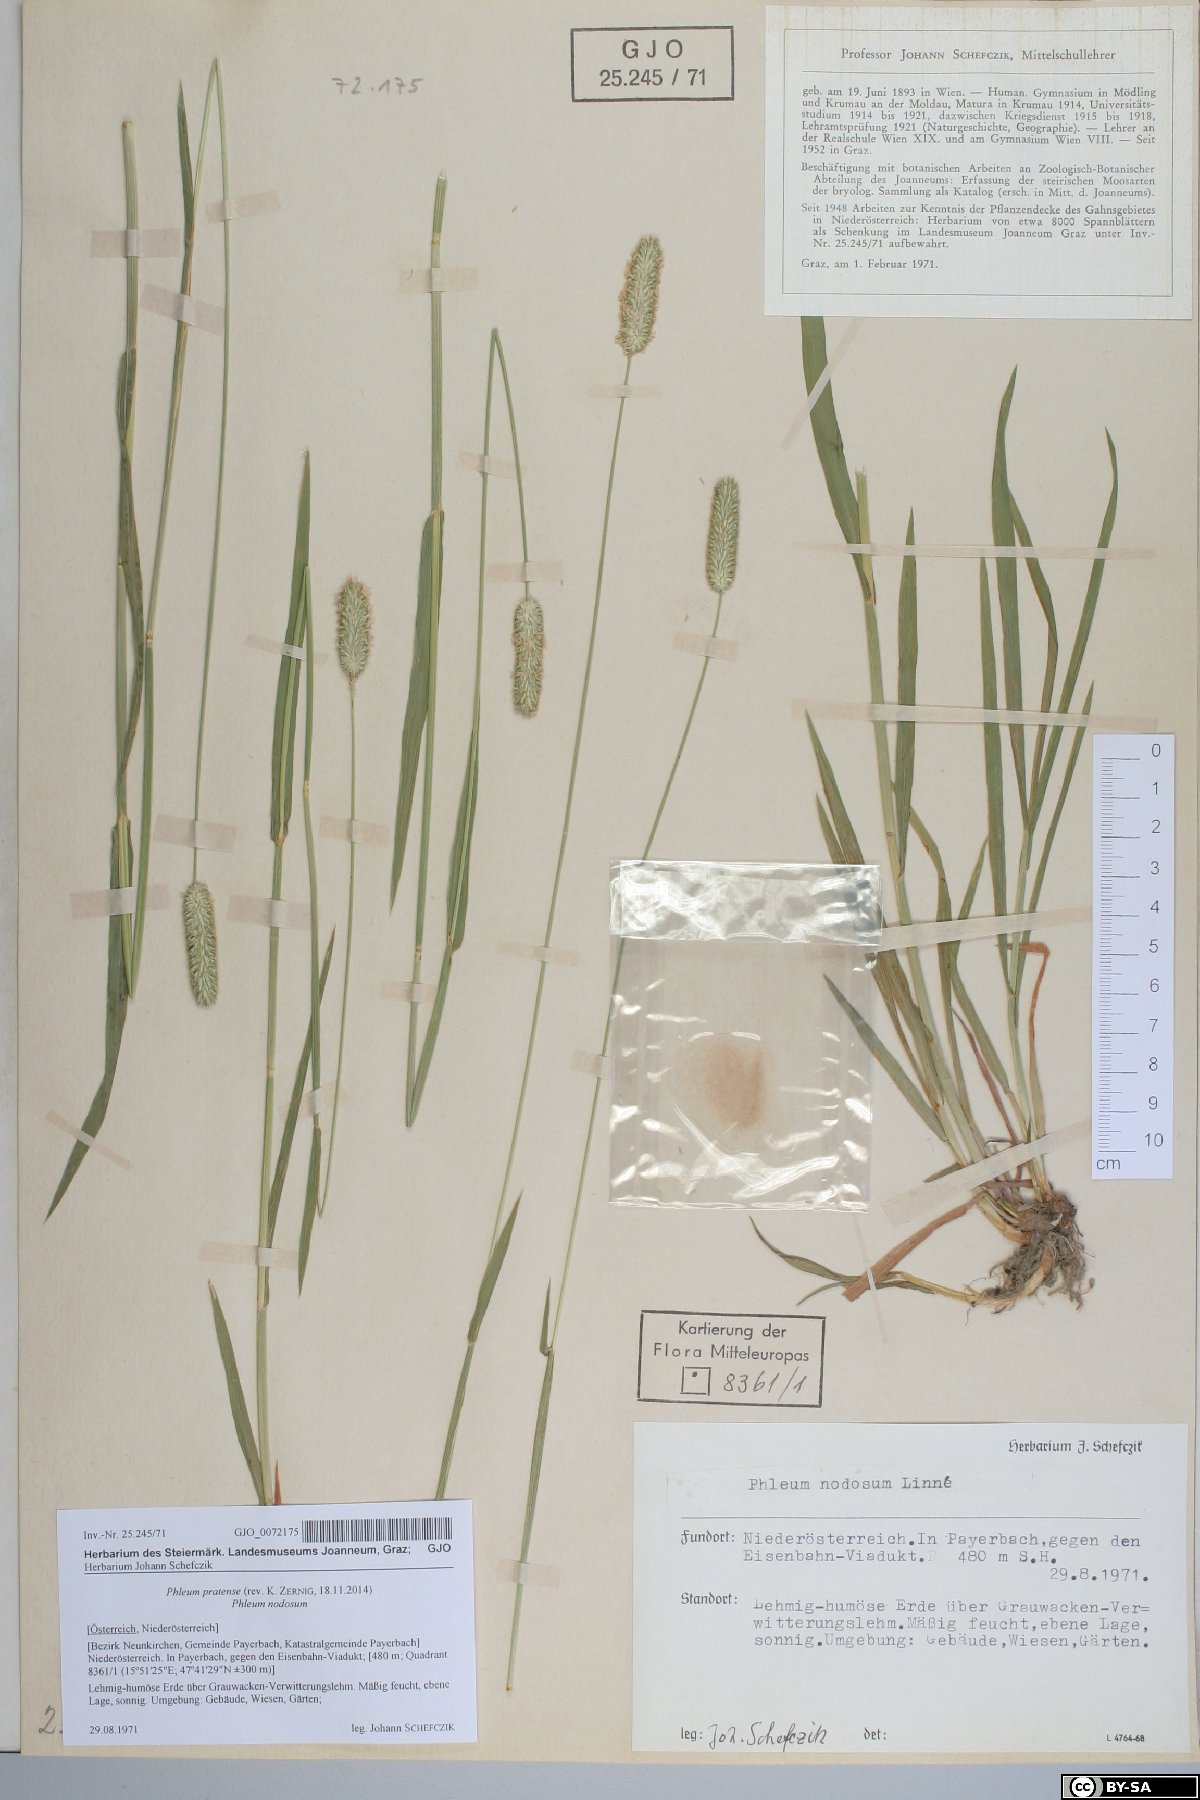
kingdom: Plantae
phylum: Tracheophyta
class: Liliopsida
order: Poales
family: Poaceae
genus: Phleum
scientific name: Phleum pratense
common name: Timothy grass
